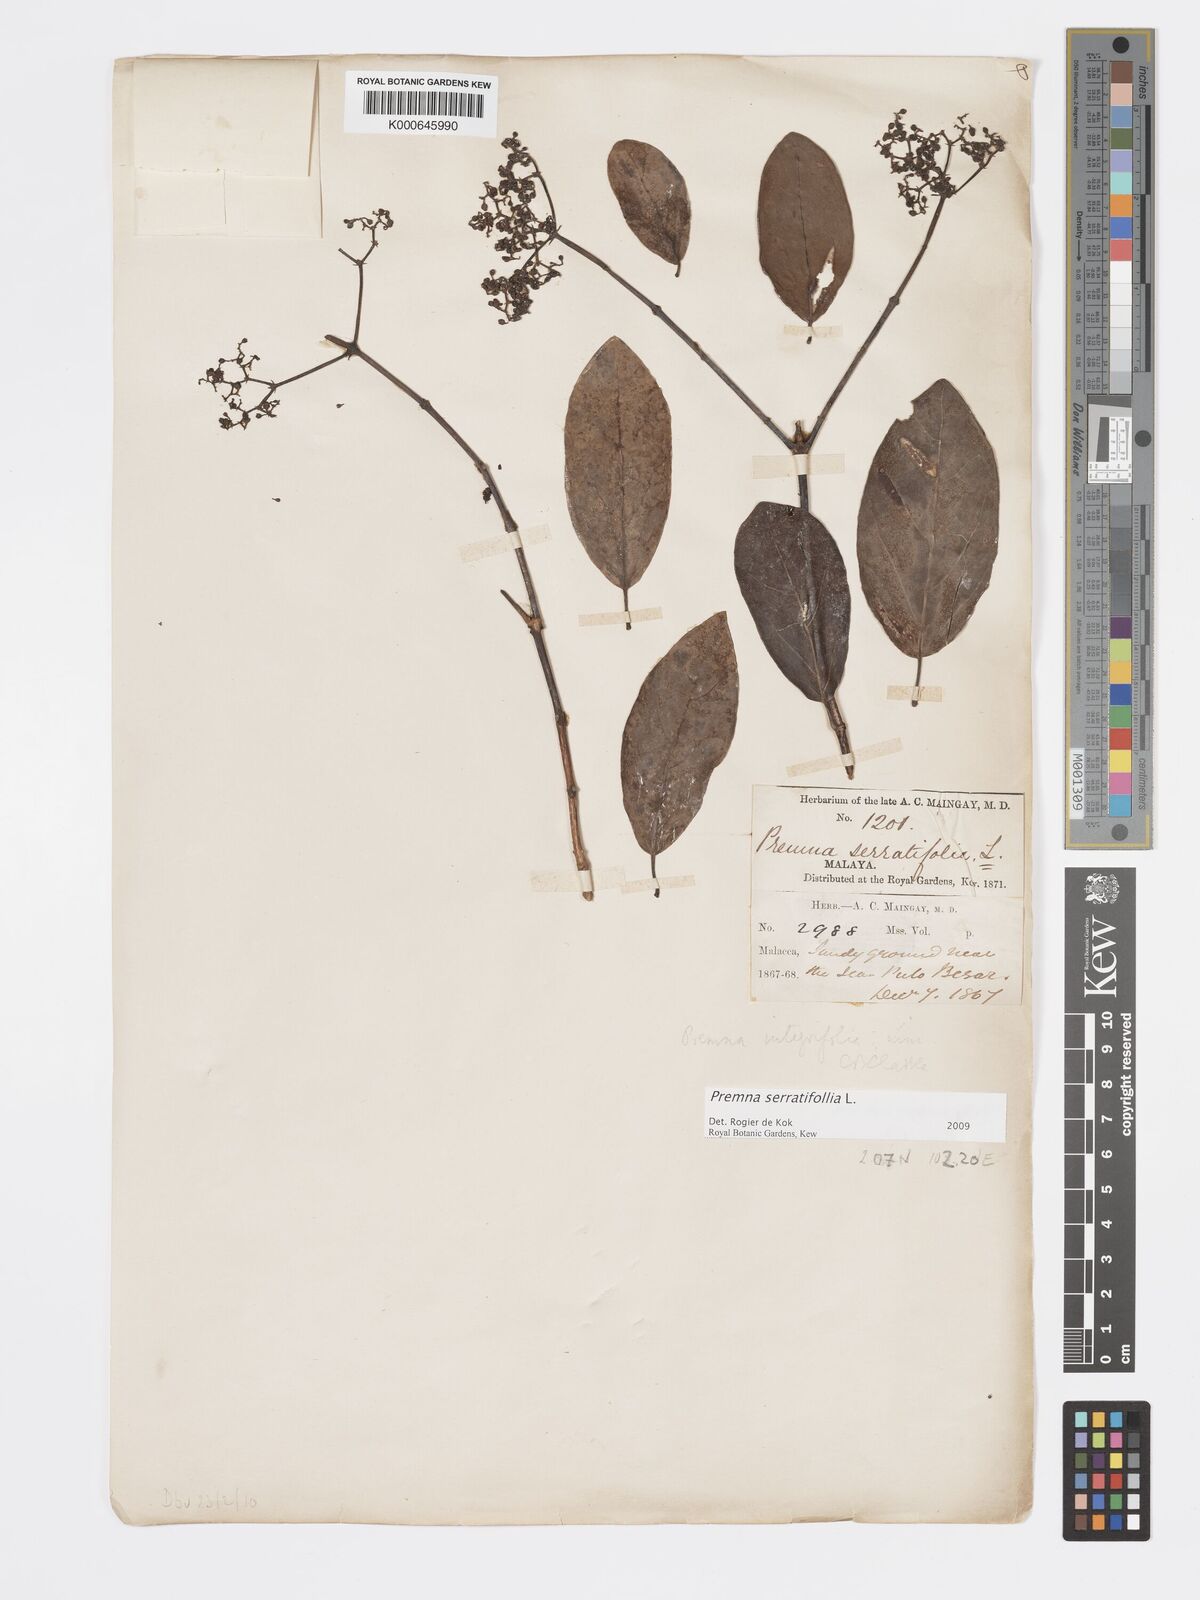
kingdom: Plantae
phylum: Tracheophyta
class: Magnoliopsida
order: Lamiales
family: Lamiaceae
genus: Premna
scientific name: Premna serratifolia
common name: Bastard guelder
